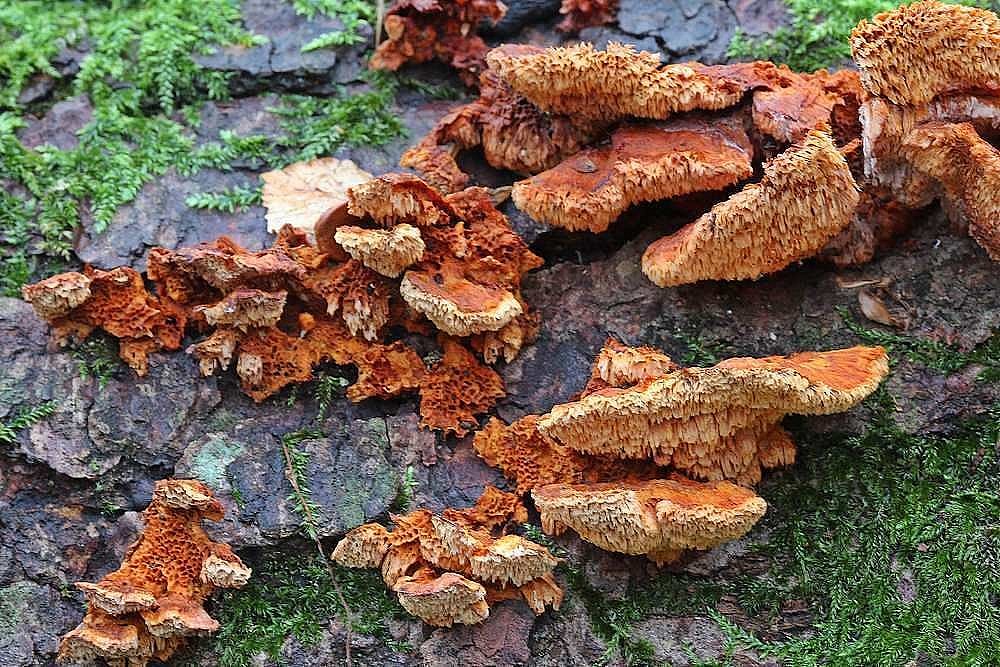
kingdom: Fungi
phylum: Basidiomycota
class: Agaricomycetes
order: Polyporales
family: Pycnoporellaceae
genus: Pycnoporellus
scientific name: Pycnoporellus fulgens
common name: flammeporesvamp
